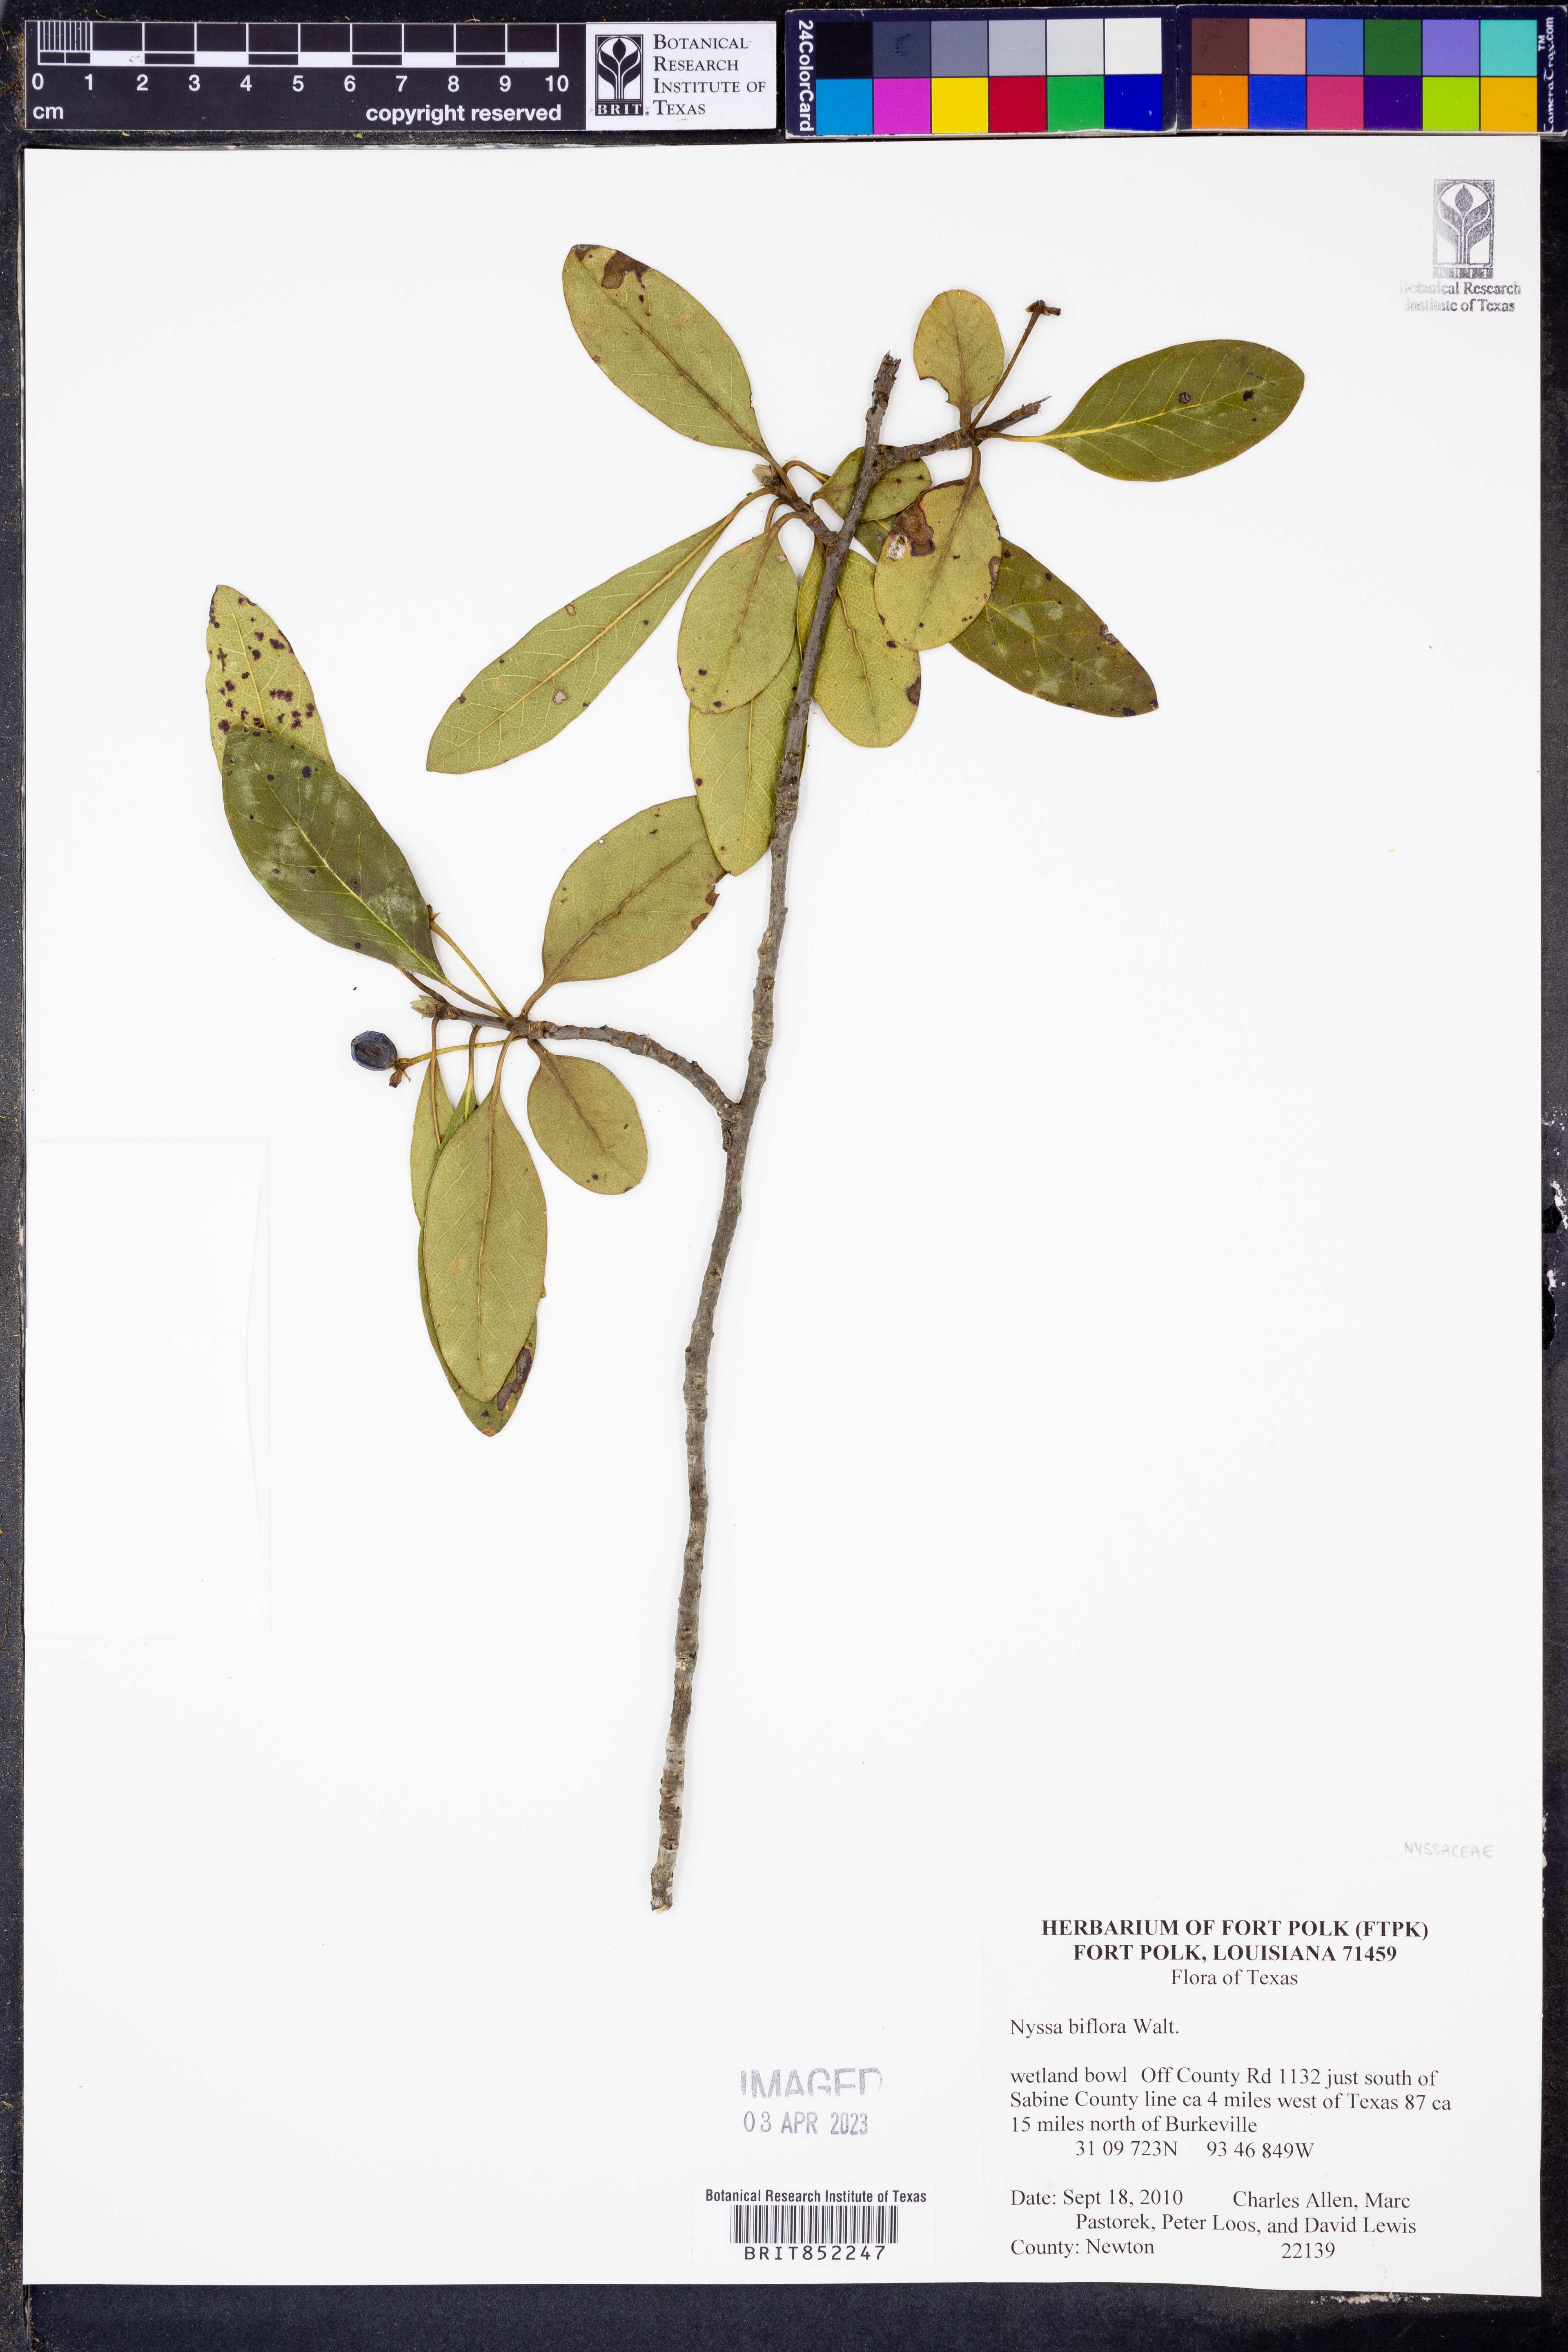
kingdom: Plantae
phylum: Tracheophyta
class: Magnoliopsida
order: Cornales
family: Nyssaceae
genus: Nyssa
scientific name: Nyssa biflora
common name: Swamp blackgum
